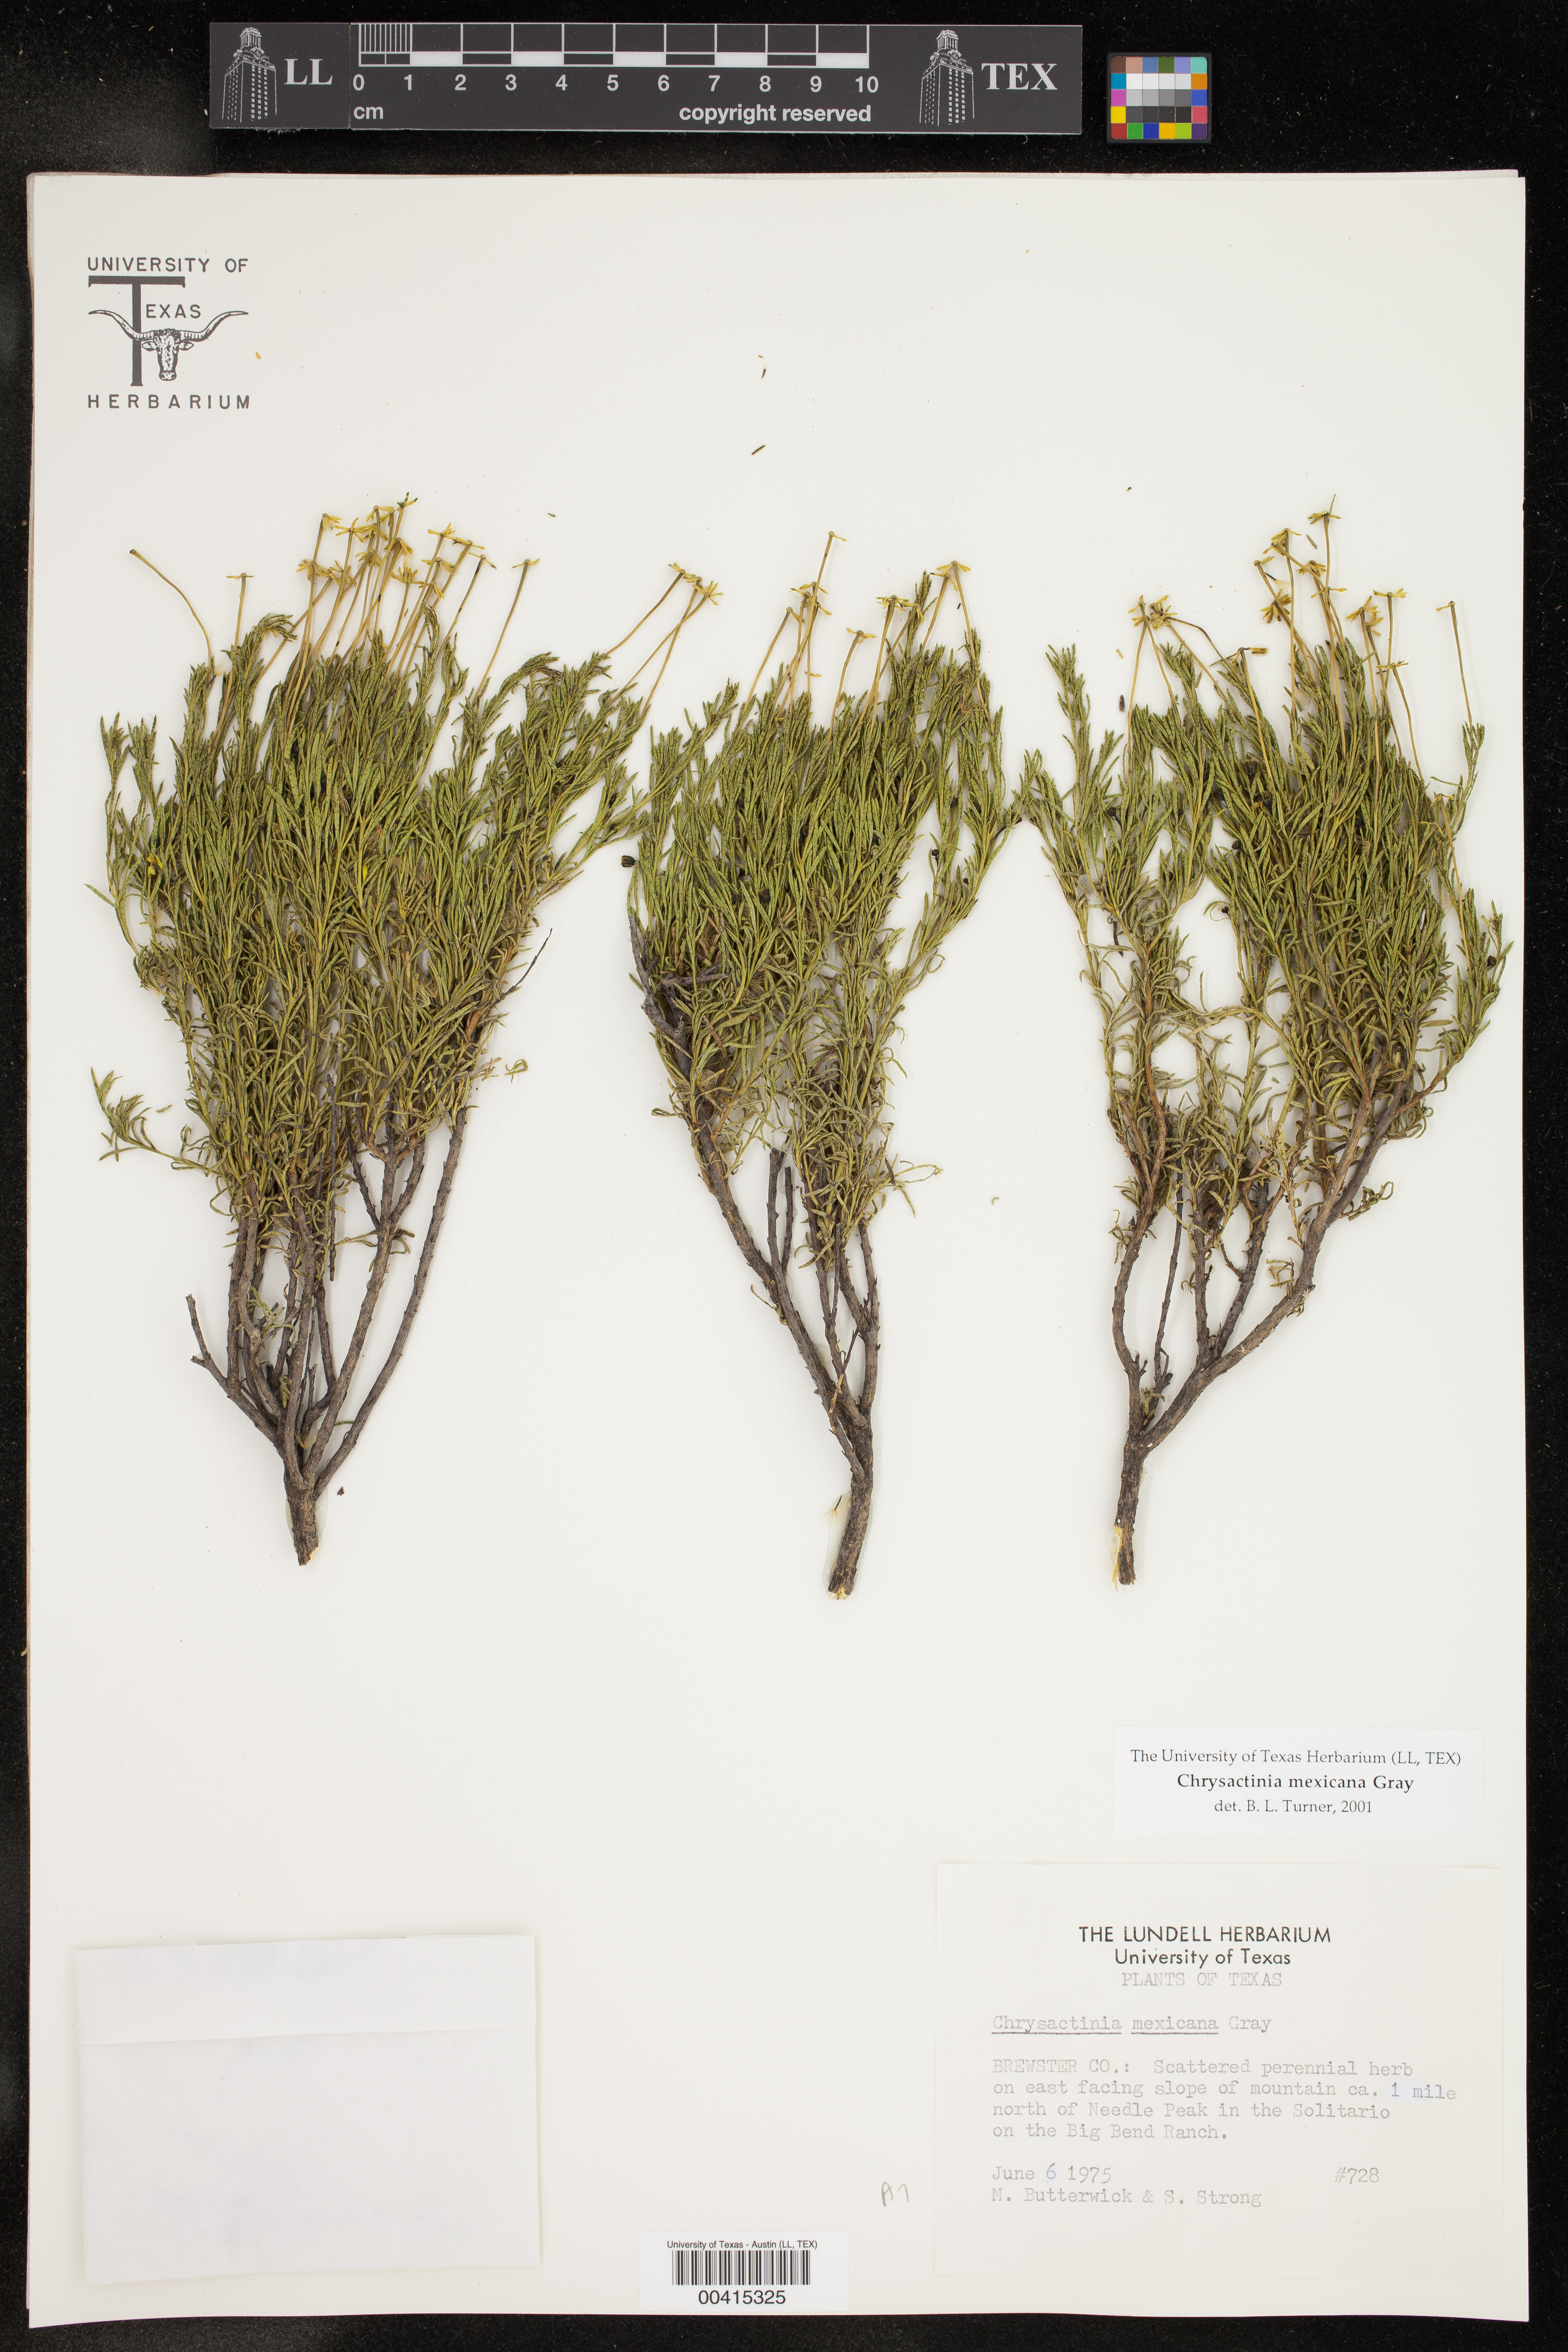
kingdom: Plantae
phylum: Tracheophyta
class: Magnoliopsida
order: Asterales
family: Asteraceae
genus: Chrysactinia
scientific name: Chrysactinia mexicana
